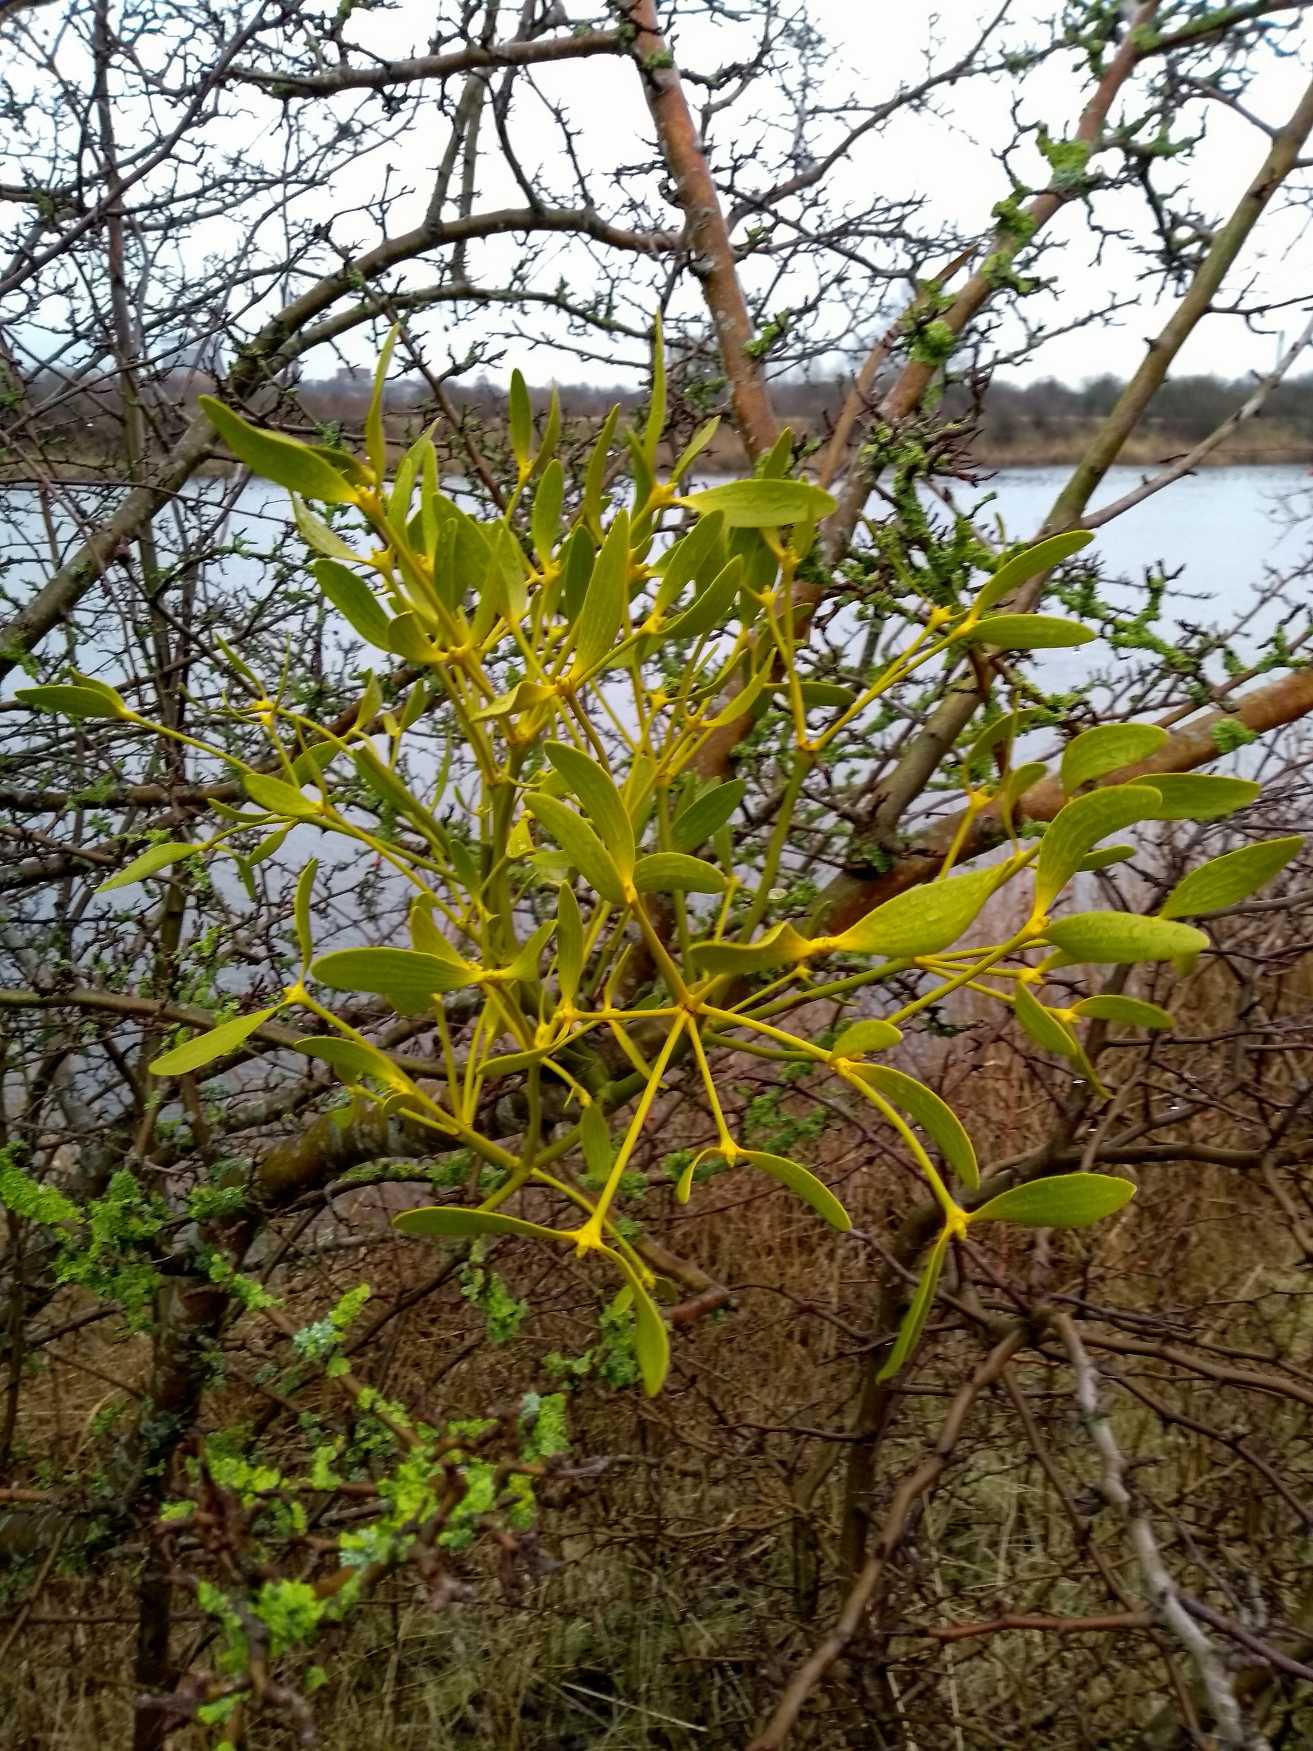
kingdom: Plantae
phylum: Tracheophyta
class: Magnoliopsida
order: Santalales
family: Viscaceae
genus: Viscum
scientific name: Viscum album
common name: Mistelten
